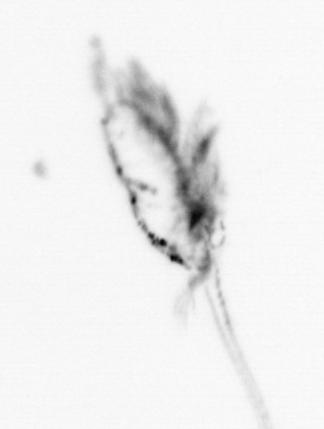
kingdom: Animalia
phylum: Arthropoda
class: Maxillopoda
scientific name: Maxillopoda
